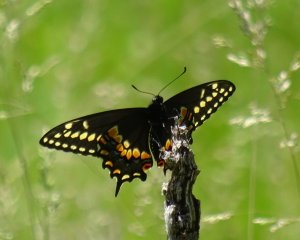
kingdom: Animalia
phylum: Arthropoda
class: Insecta
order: Lepidoptera
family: Papilionidae
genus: Papilio
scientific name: Papilio polyxenes
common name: Black Swallowtail
